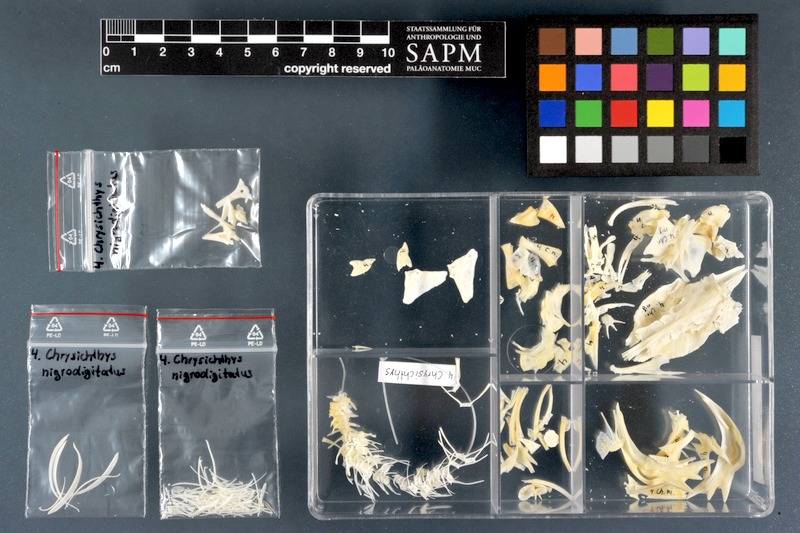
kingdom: Animalia
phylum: Chordata
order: Siluriformes
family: Claroteidae
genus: Chrysichthys
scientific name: Chrysichthys nigrodigitatus
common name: Bagrid catfish
